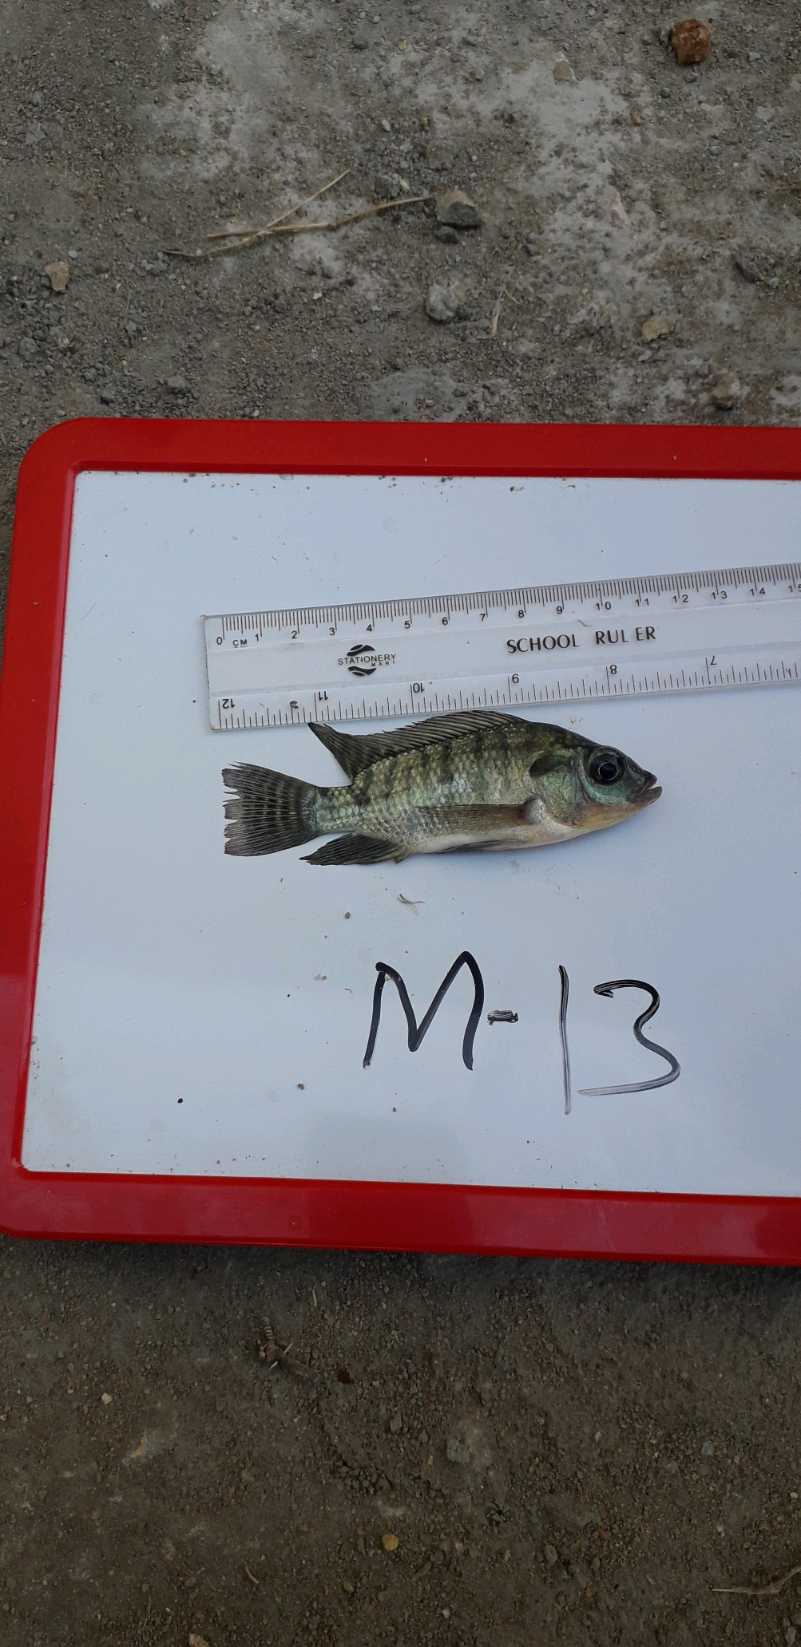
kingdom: Animalia
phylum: Chordata
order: Perciformes
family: Cichlidae
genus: Oreochromis
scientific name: Oreochromis niloticus
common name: Nile tilapia
